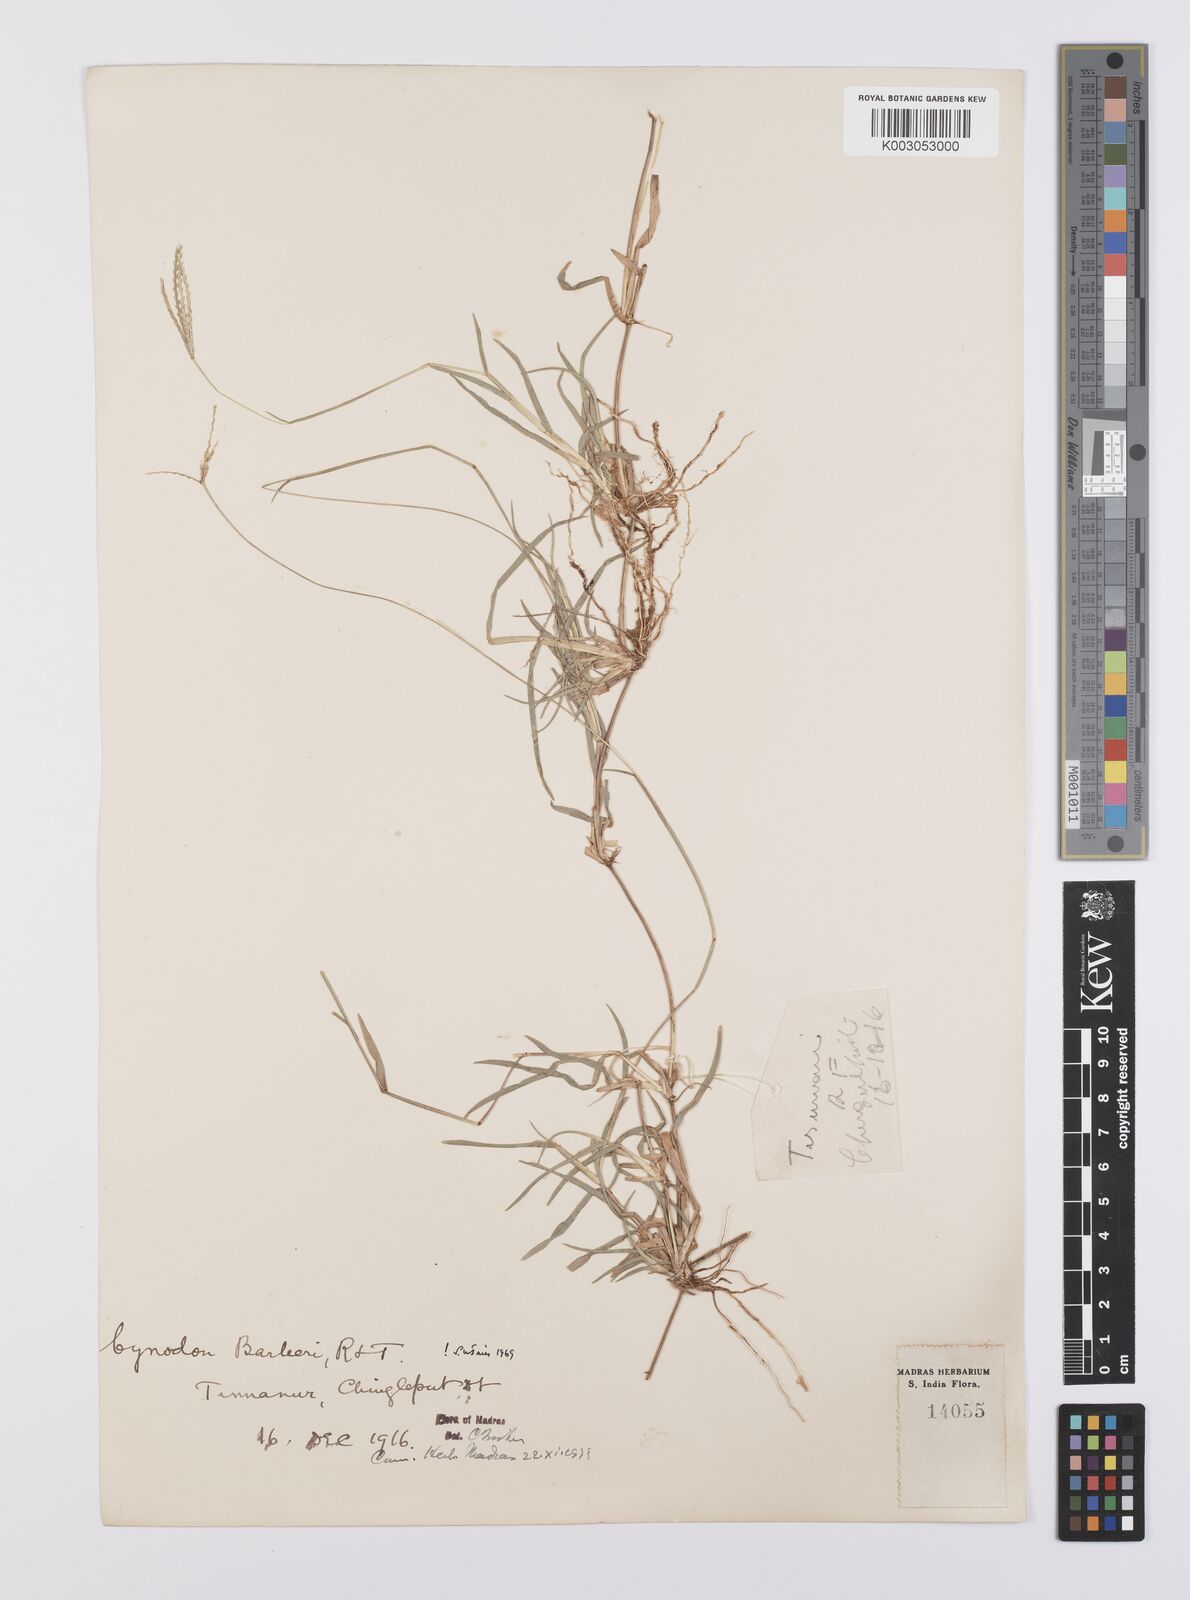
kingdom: Plantae
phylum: Tracheophyta
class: Liliopsida
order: Poales
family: Poaceae
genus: Cynodon
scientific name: Cynodon barberi
